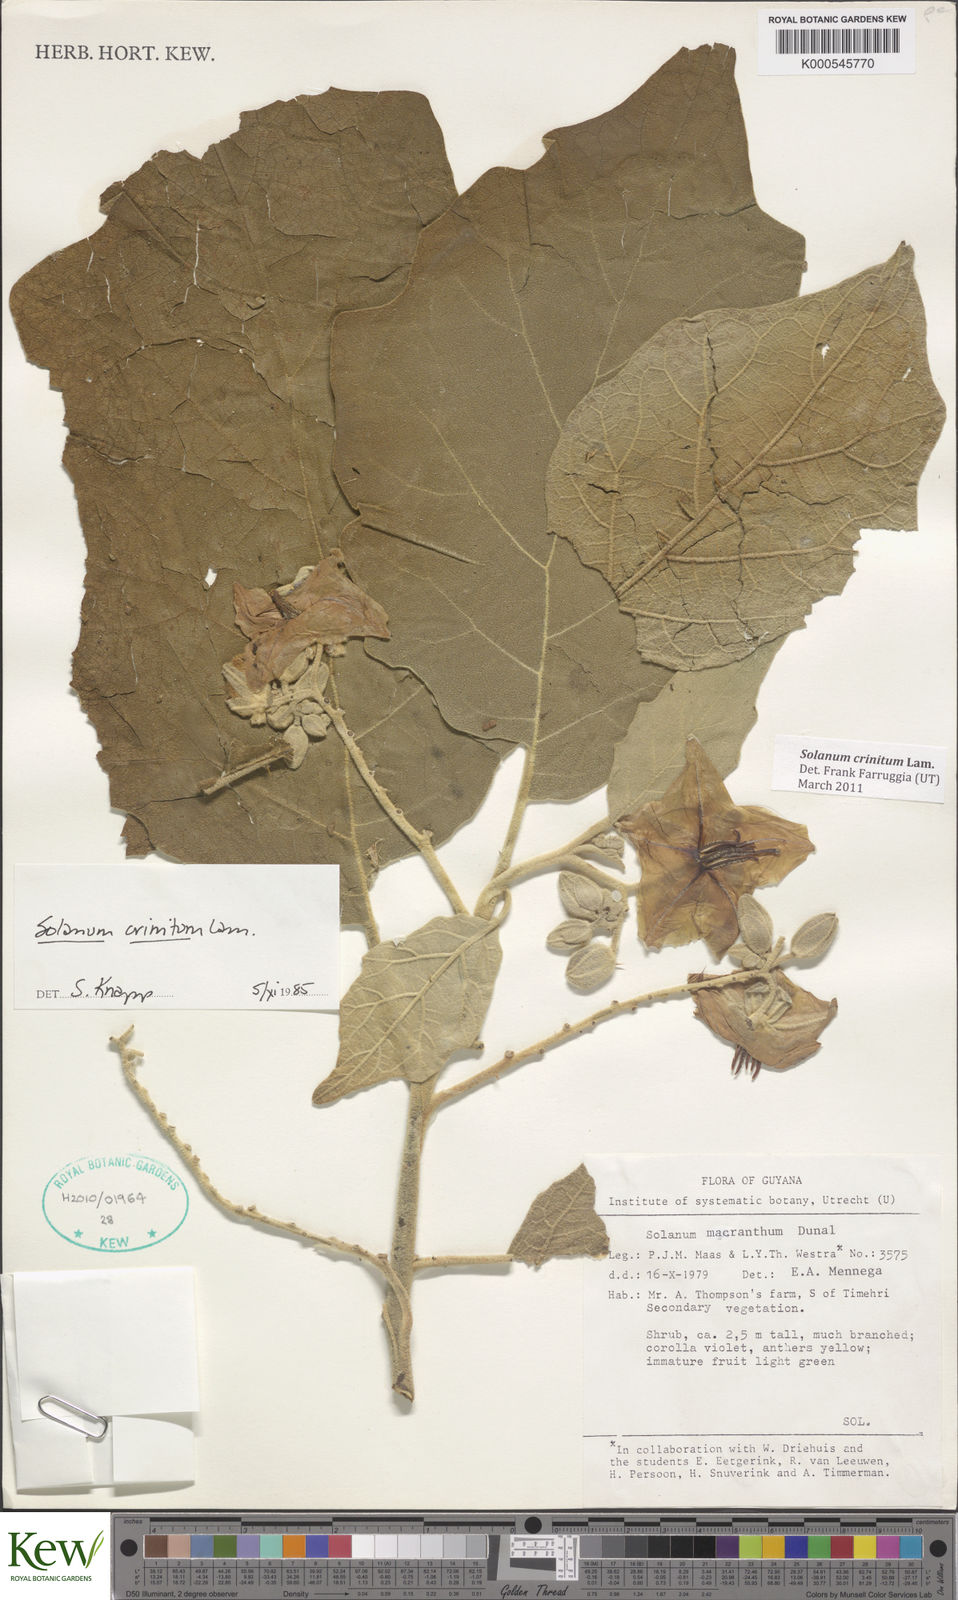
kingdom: Plantae
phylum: Tracheophyta
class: Magnoliopsida
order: Solanales
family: Solanaceae
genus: Solanum
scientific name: Solanum crinitum
